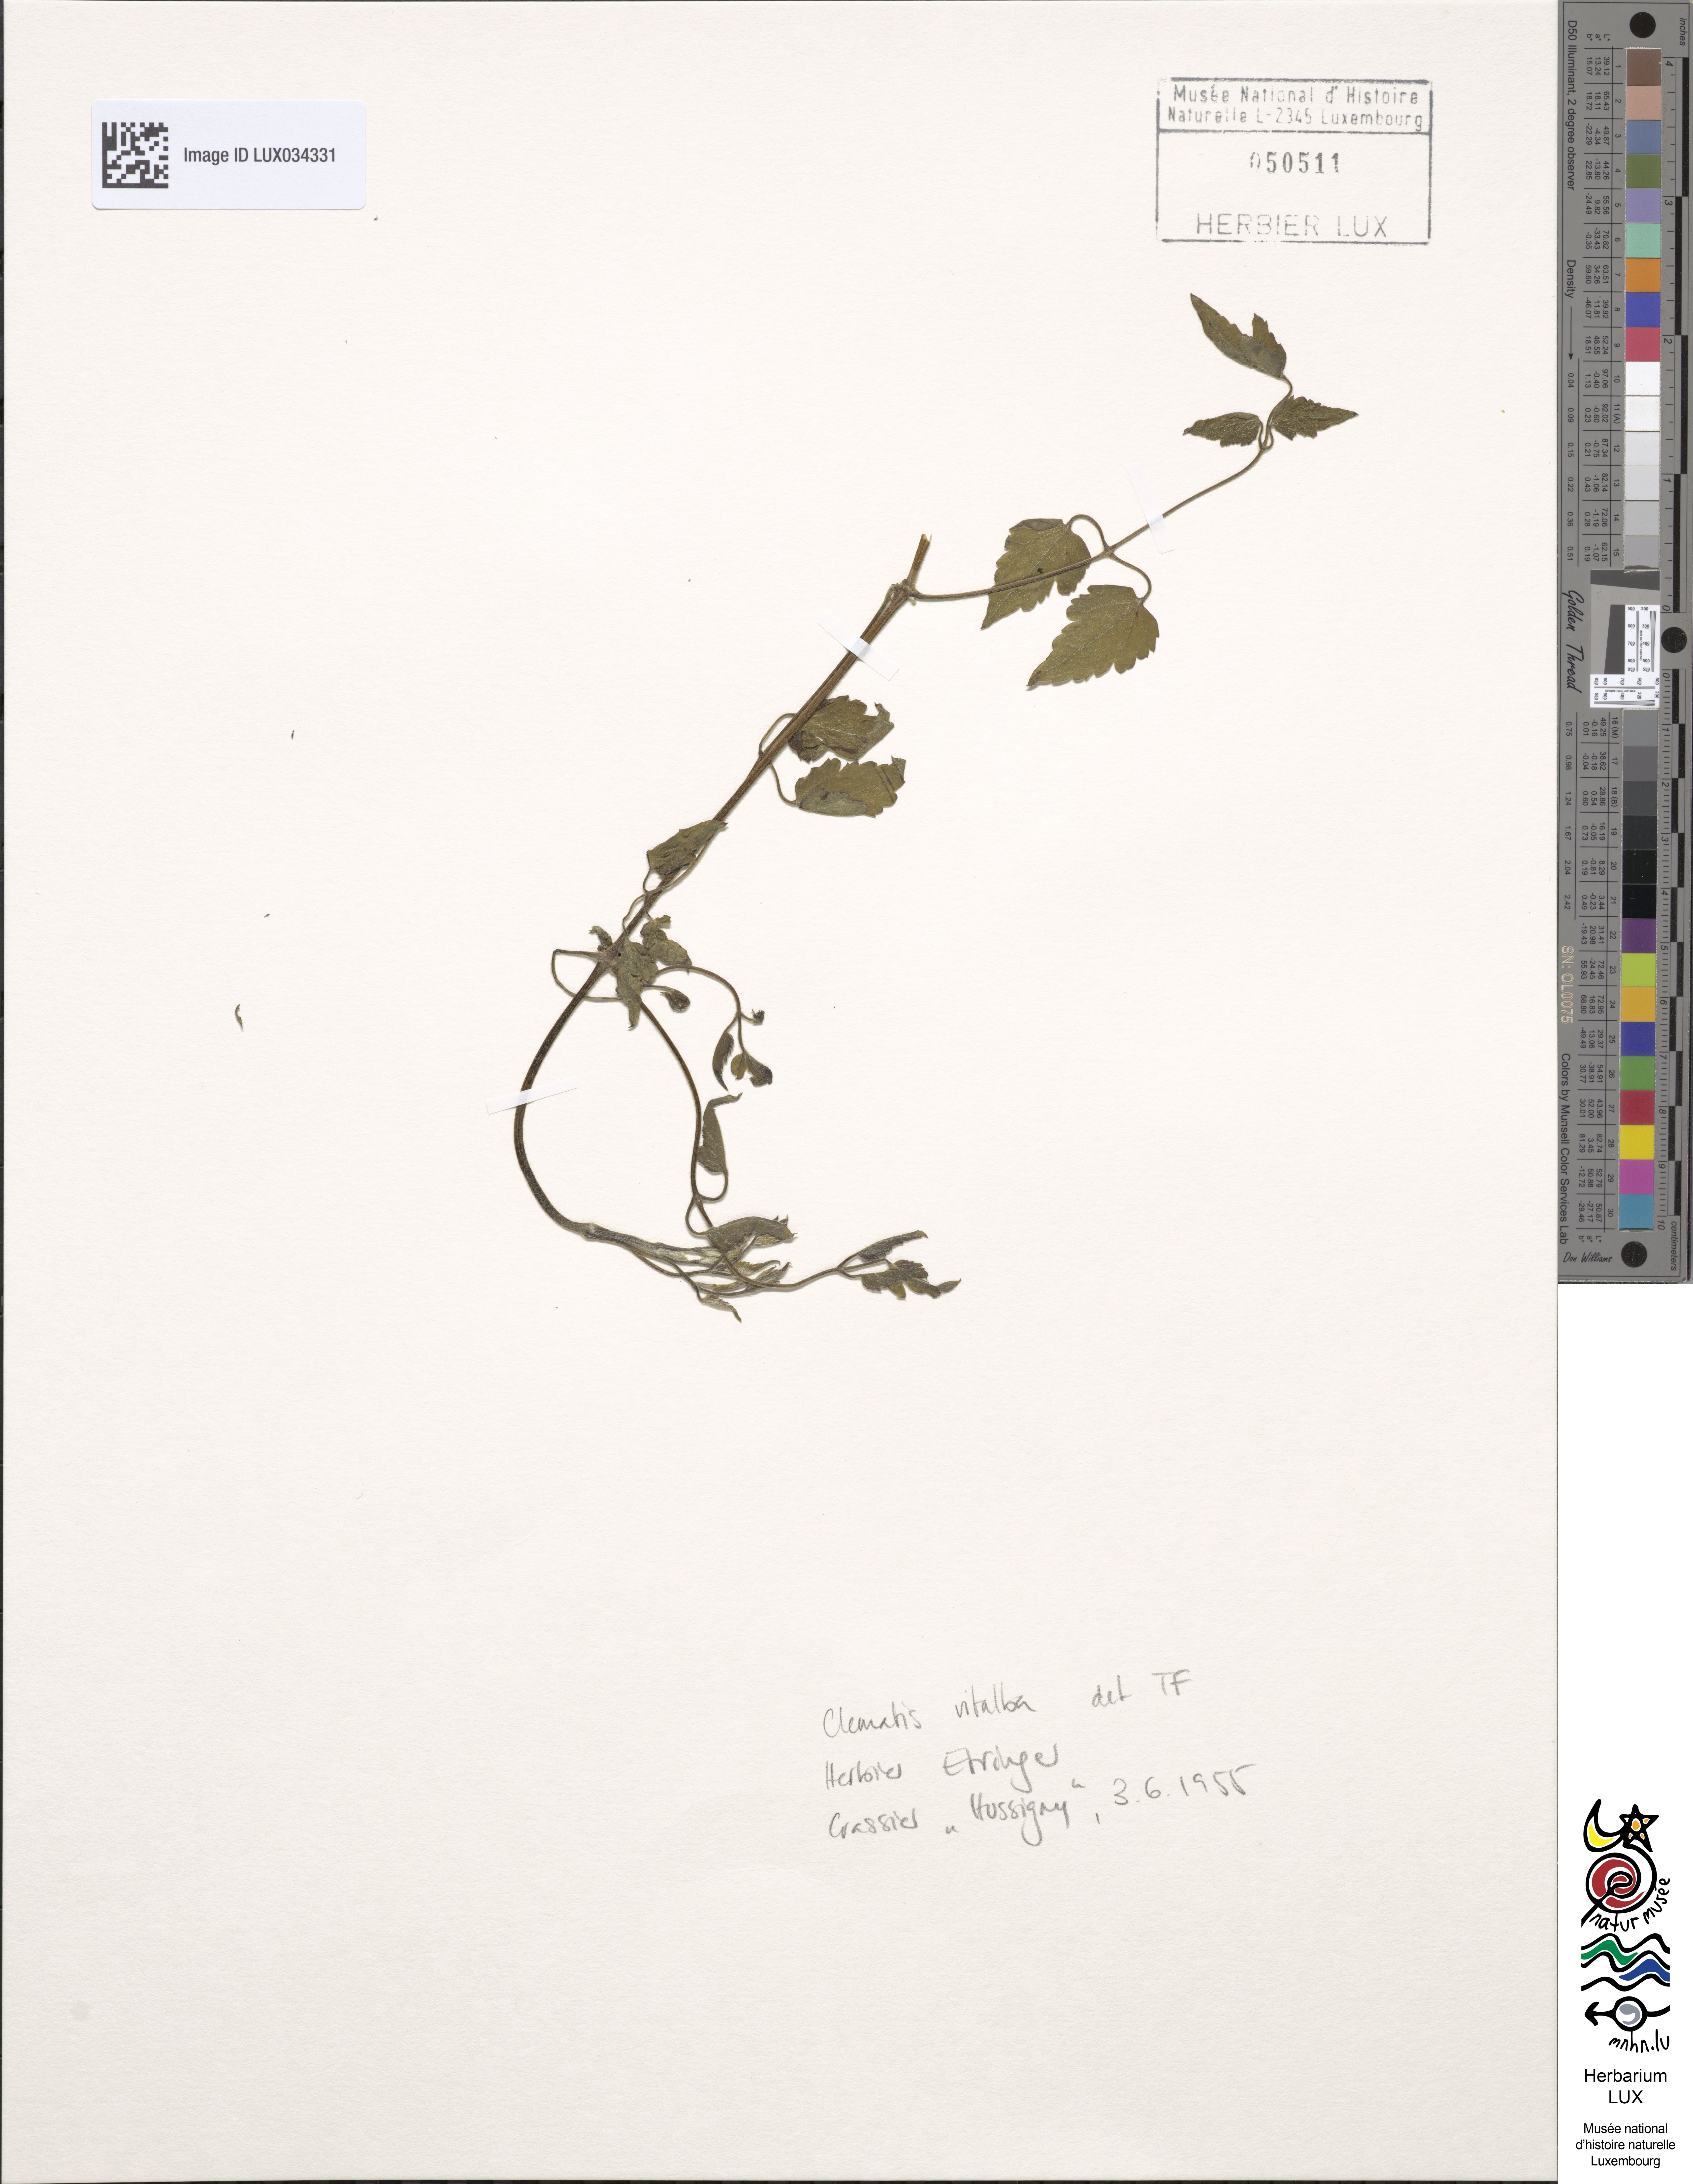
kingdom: Plantae
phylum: Tracheophyta
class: Magnoliopsida
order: Ranunculales
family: Ranunculaceae
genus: Clematis
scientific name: Clematis vitalba
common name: Evergreen clematis
